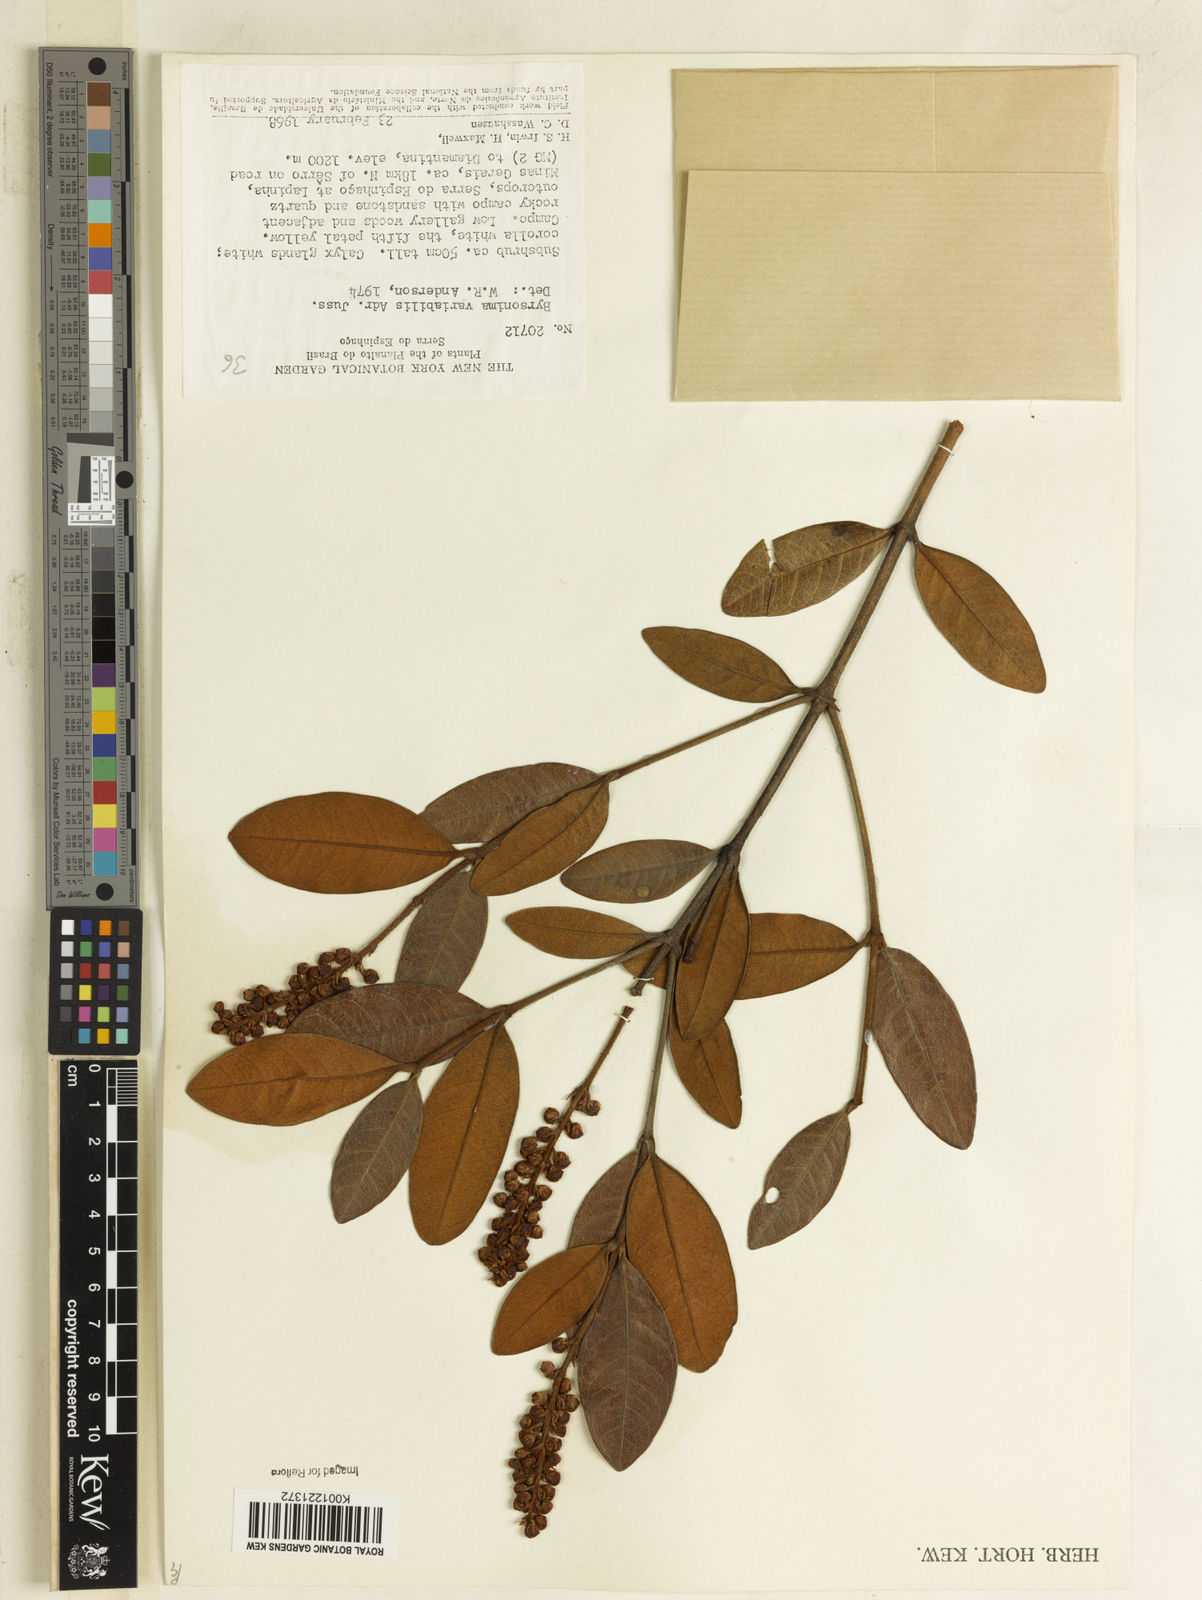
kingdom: Plantae
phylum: Tracheophyta
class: Magnoliopsida
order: Malpighiales
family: Malpighiaceae
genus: Byrsonima
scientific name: Byrsonima variabilis
